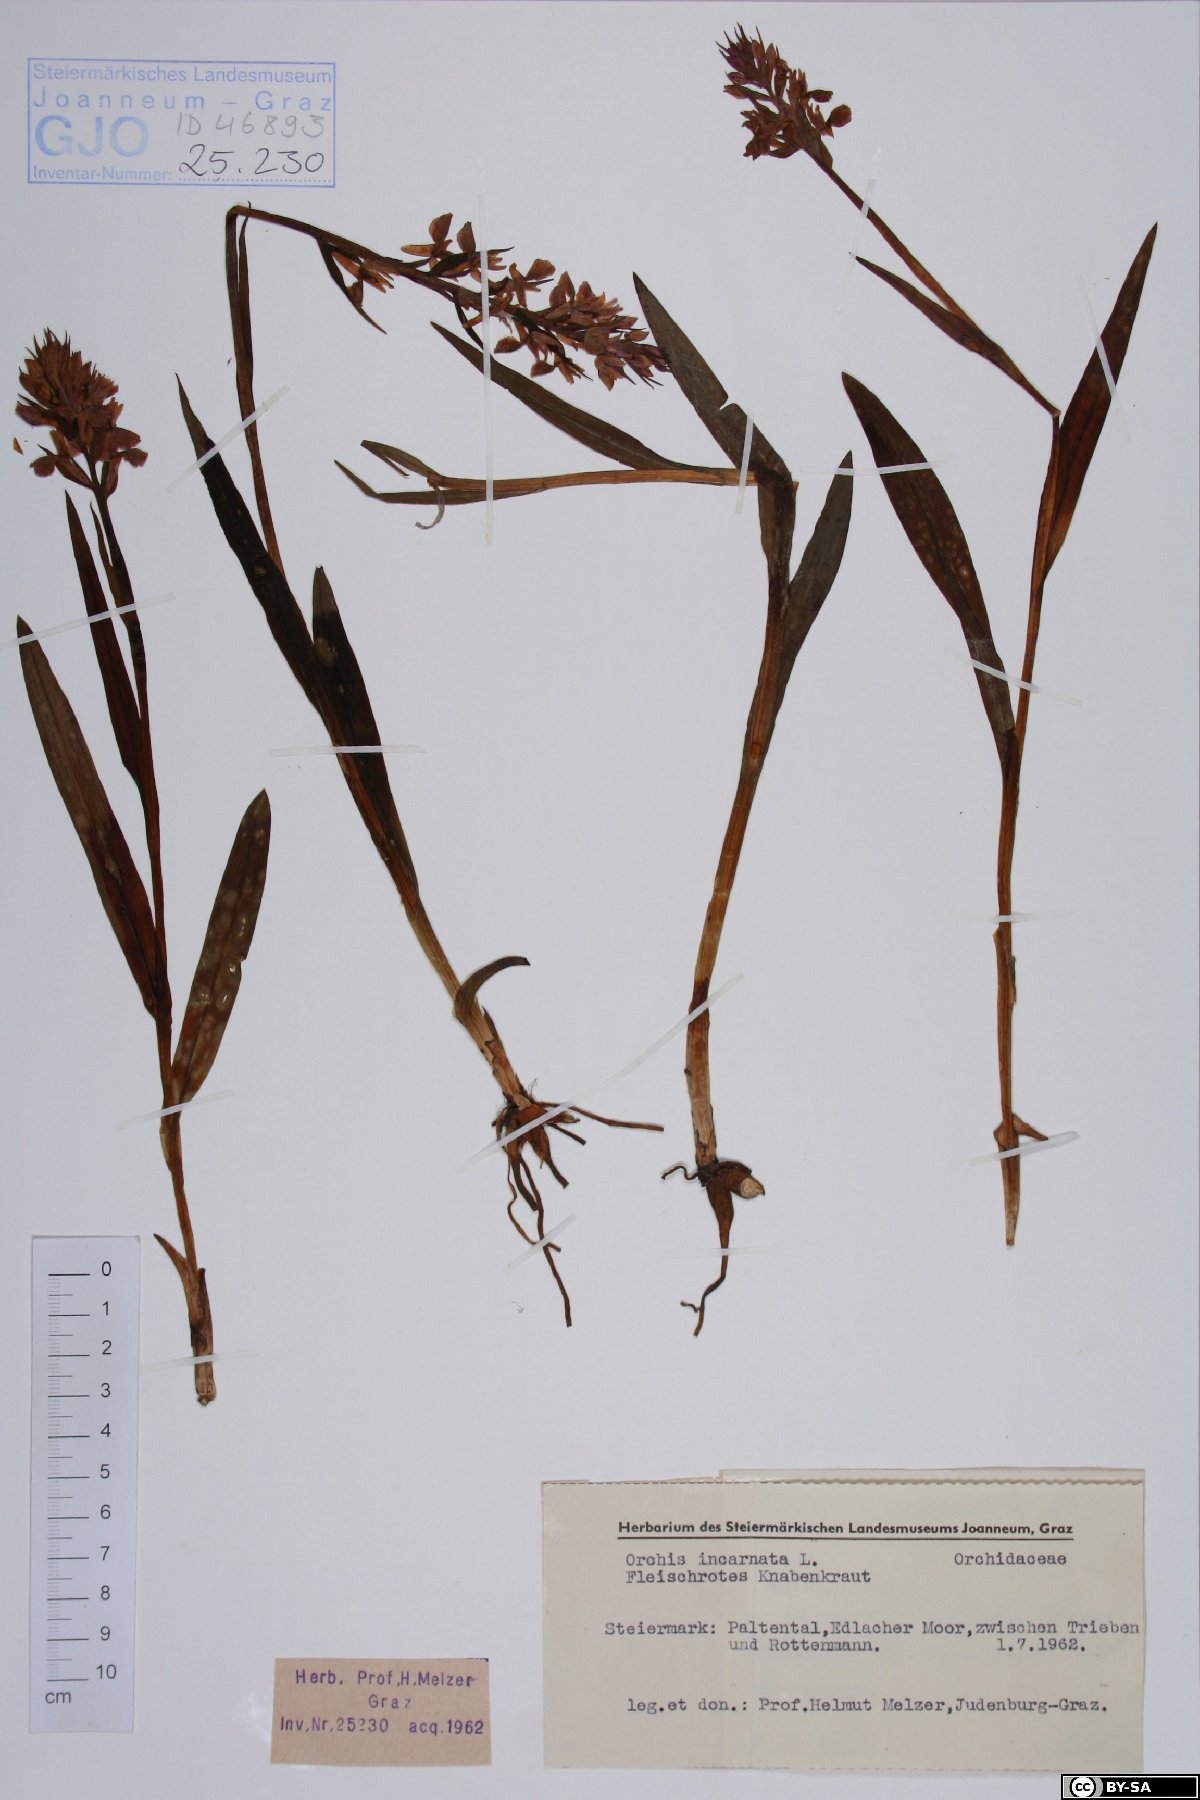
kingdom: Plantae
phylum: Tracheophyta
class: Liliopsida
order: Asparagales
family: Orchidaceae
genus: Dactylorhiza
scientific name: Dactylorhiza incarnata
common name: Early marsh-orchid
